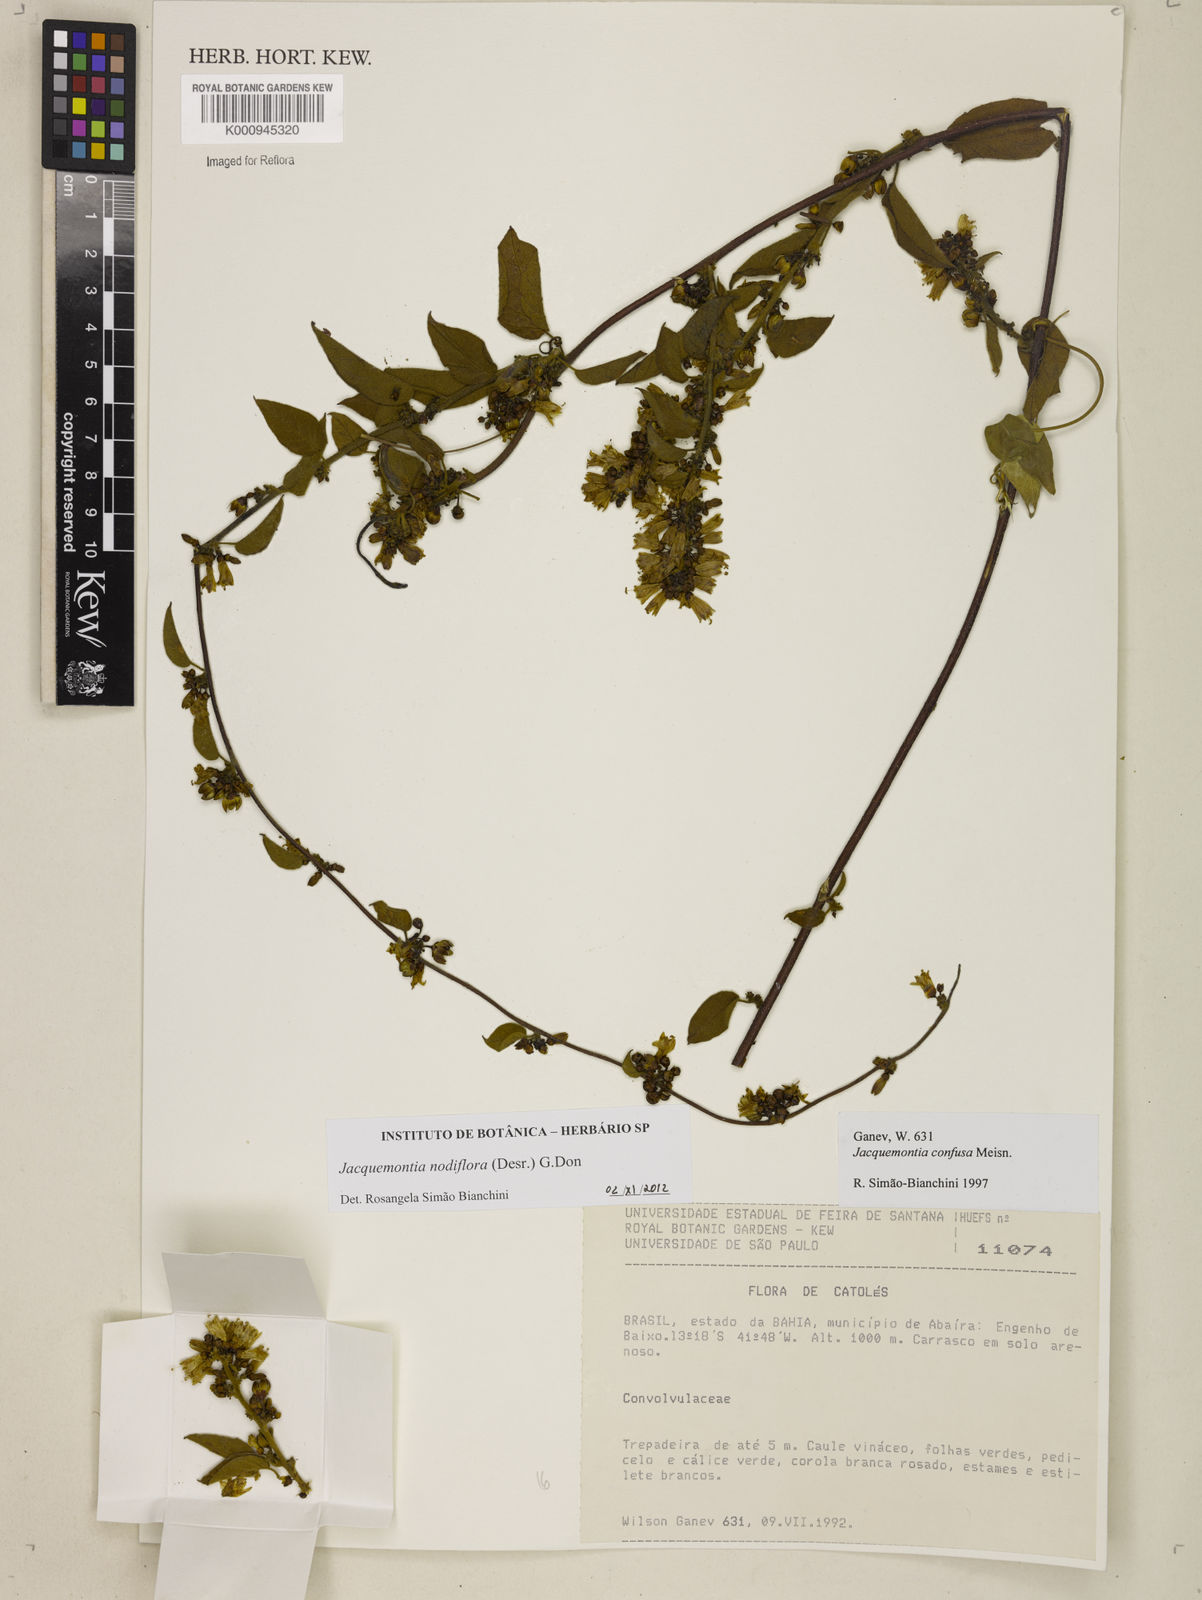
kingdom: Plantae
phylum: Tracheophyta
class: Magnoliopsida
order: Solanales
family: Convolvulaceae
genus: Jacquemontia
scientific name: Jacquemontia nodiflora
